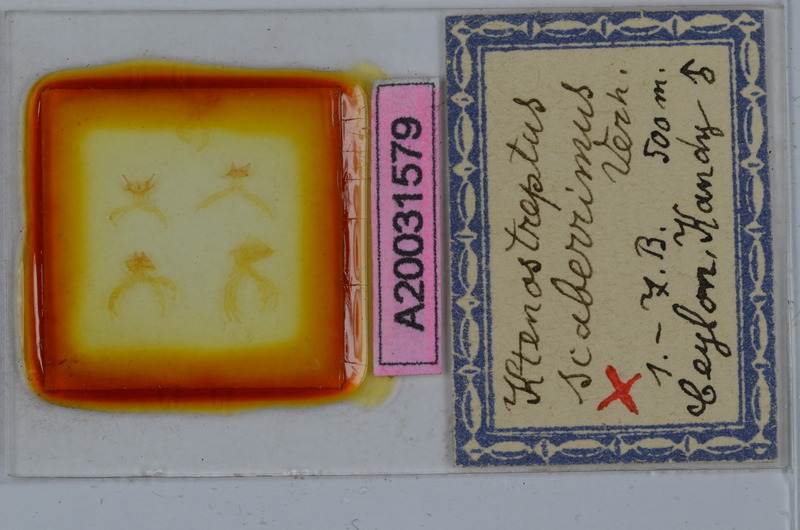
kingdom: Animalia
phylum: Arthropoda
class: Diplopoda
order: Spirostreptida
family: Harpagophoridae
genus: Ktenostreptus
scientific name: Ktenostreptus costulatus
